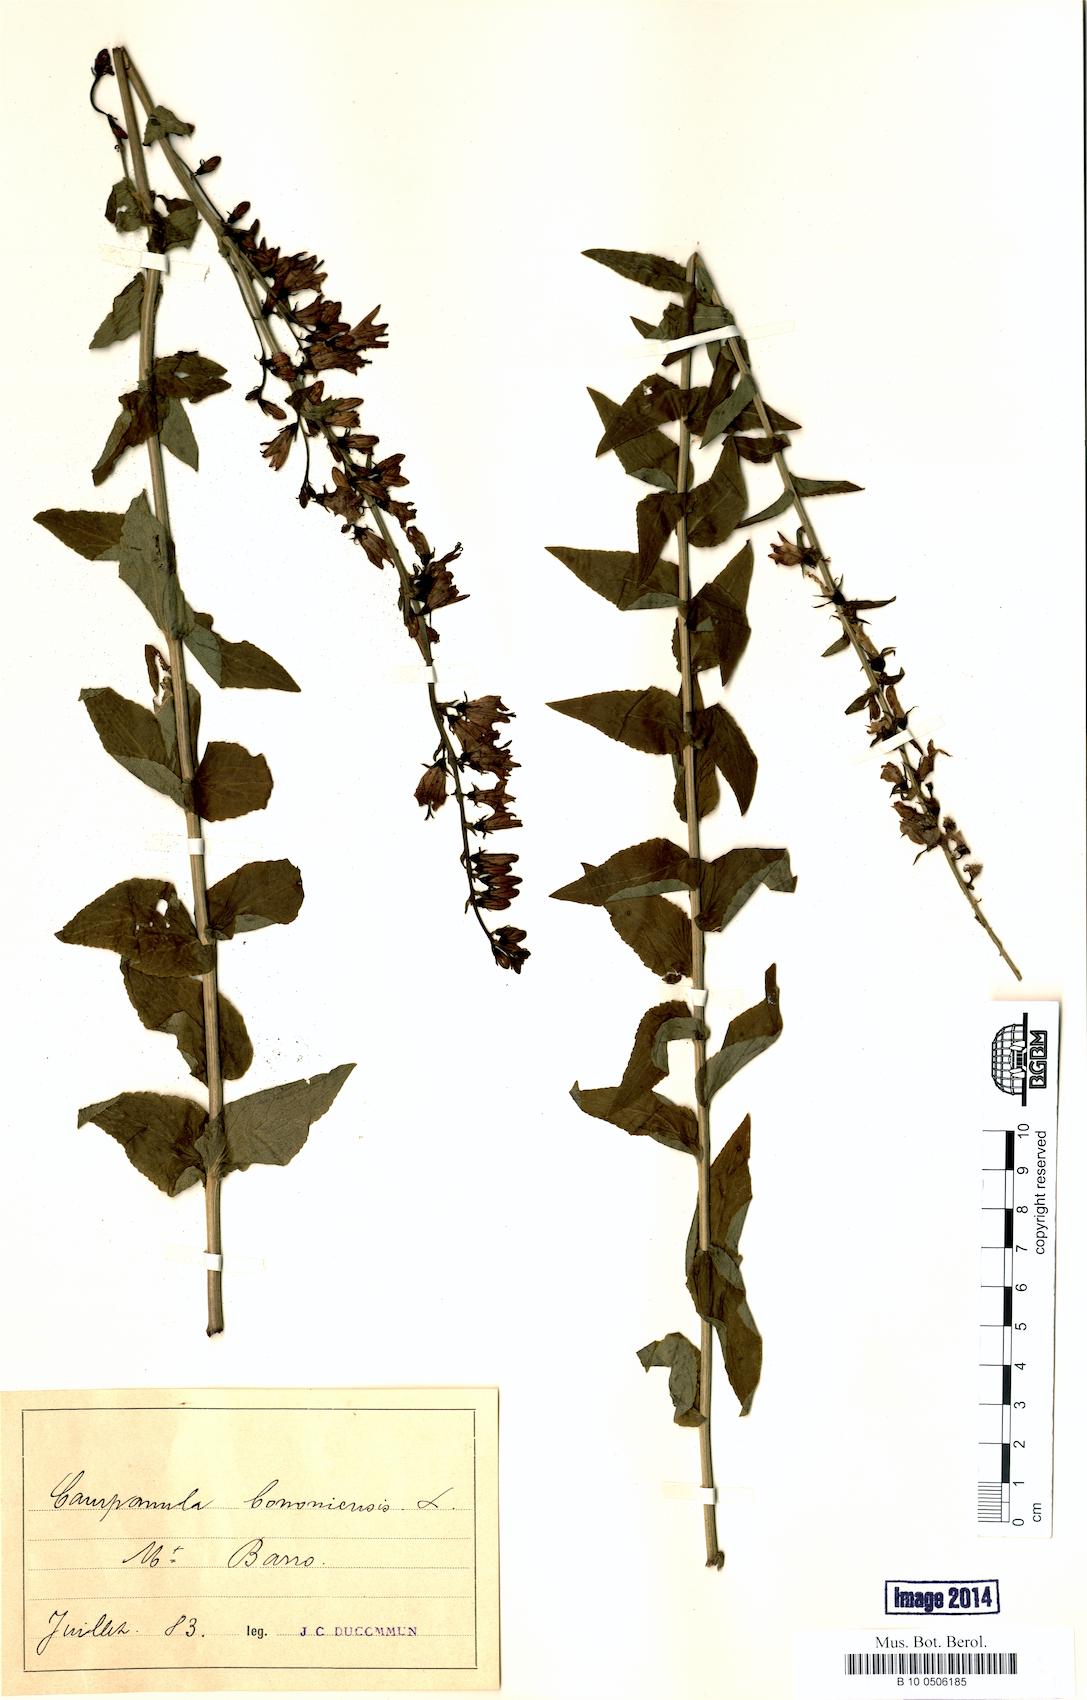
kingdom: Plantae
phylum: Tracheophyta
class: Magnoliopsida
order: Asterales
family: Campanulaceae
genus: Campanula
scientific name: Campanula bononiensis
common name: Pale bellflower
